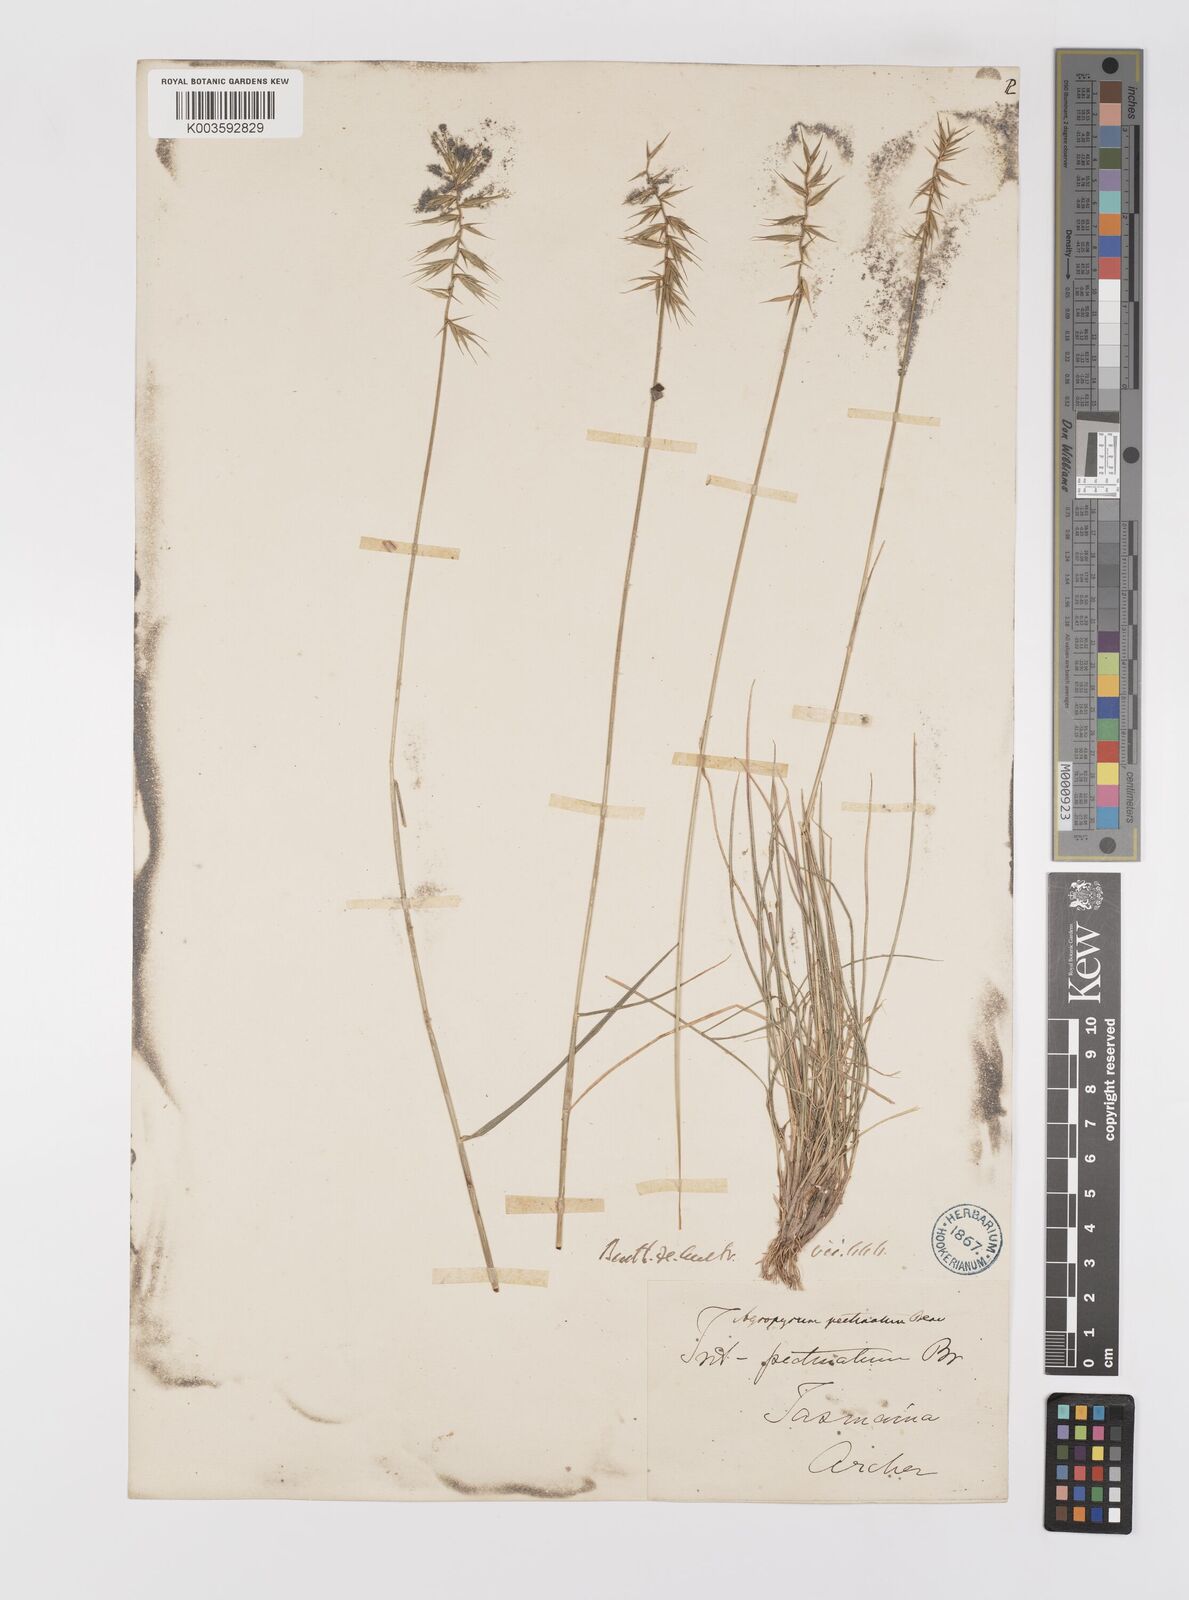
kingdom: Plantae
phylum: Tracheophyta
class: Liliopsida
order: Poales
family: Poaceae
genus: Australopyrum
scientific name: Australopyrum pectinatum
